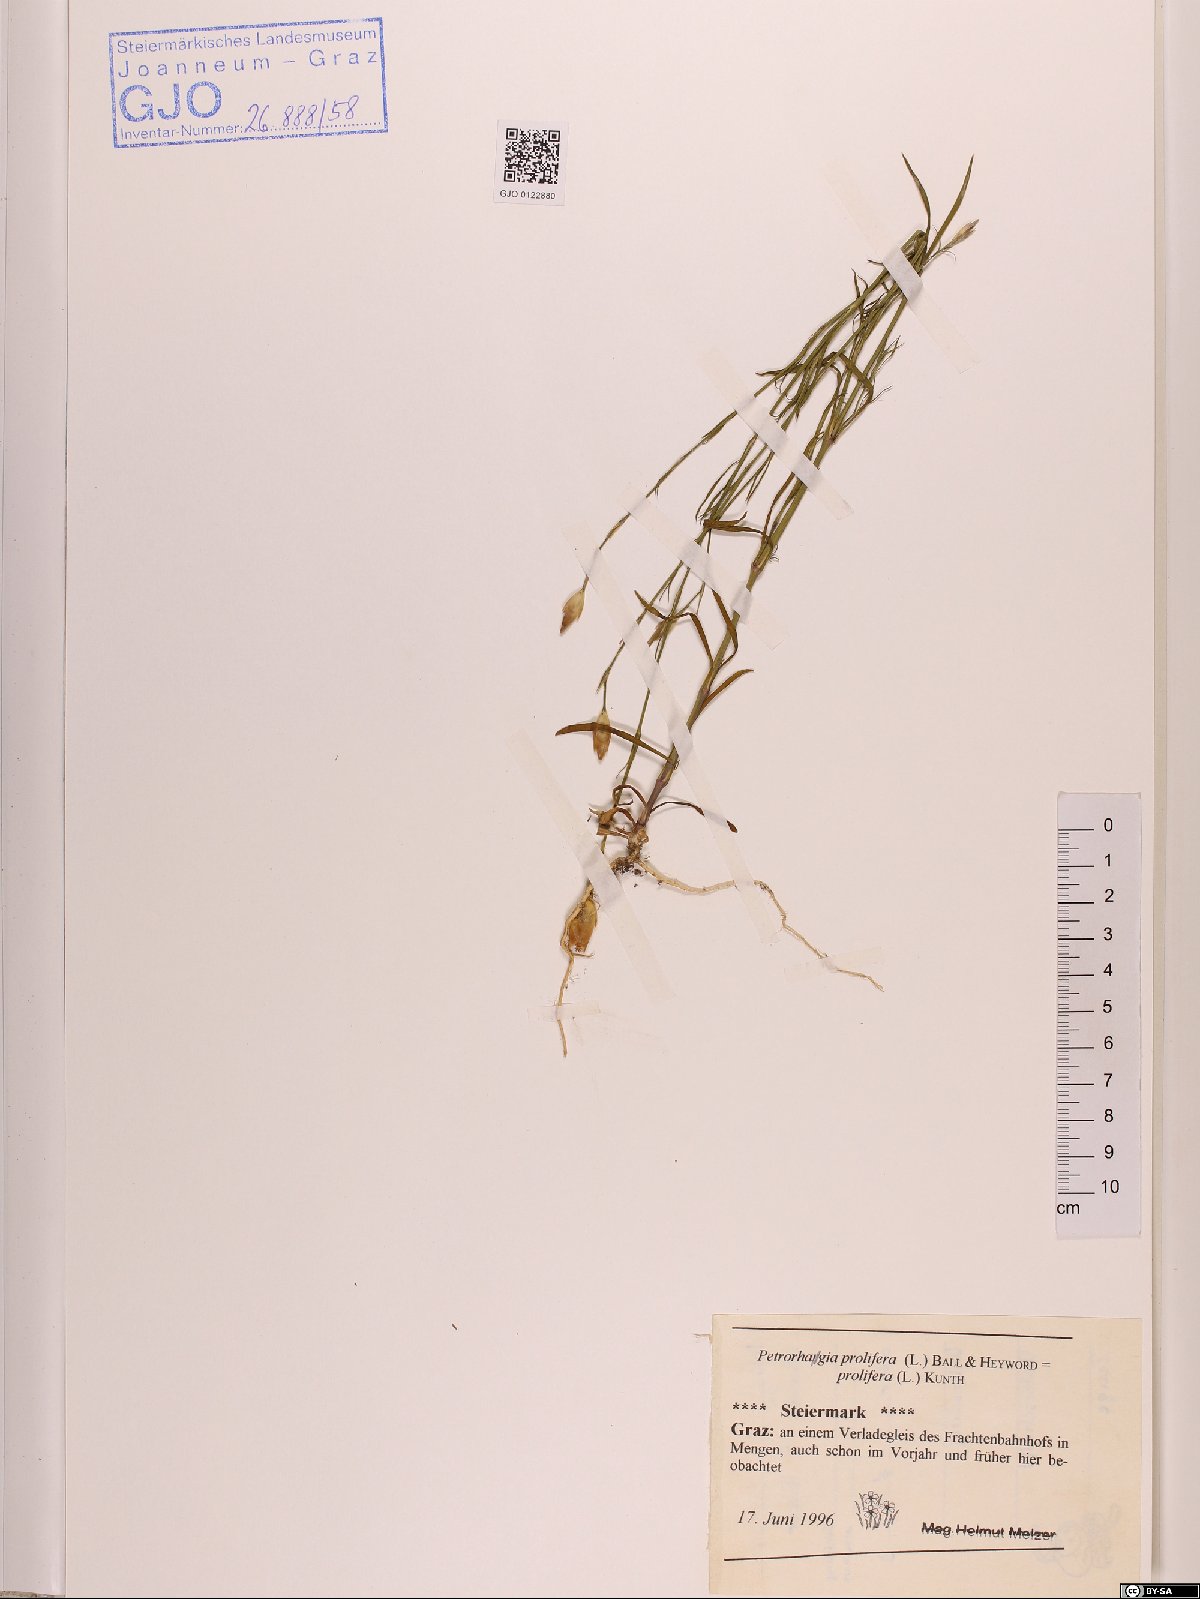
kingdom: Plantae
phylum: Tracheophyta
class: Magnoliopsida
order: Caryophyllales
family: Caryophyllaceae
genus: Petrorhagia
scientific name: Petrorhagia prolifera
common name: Proliferous pink
